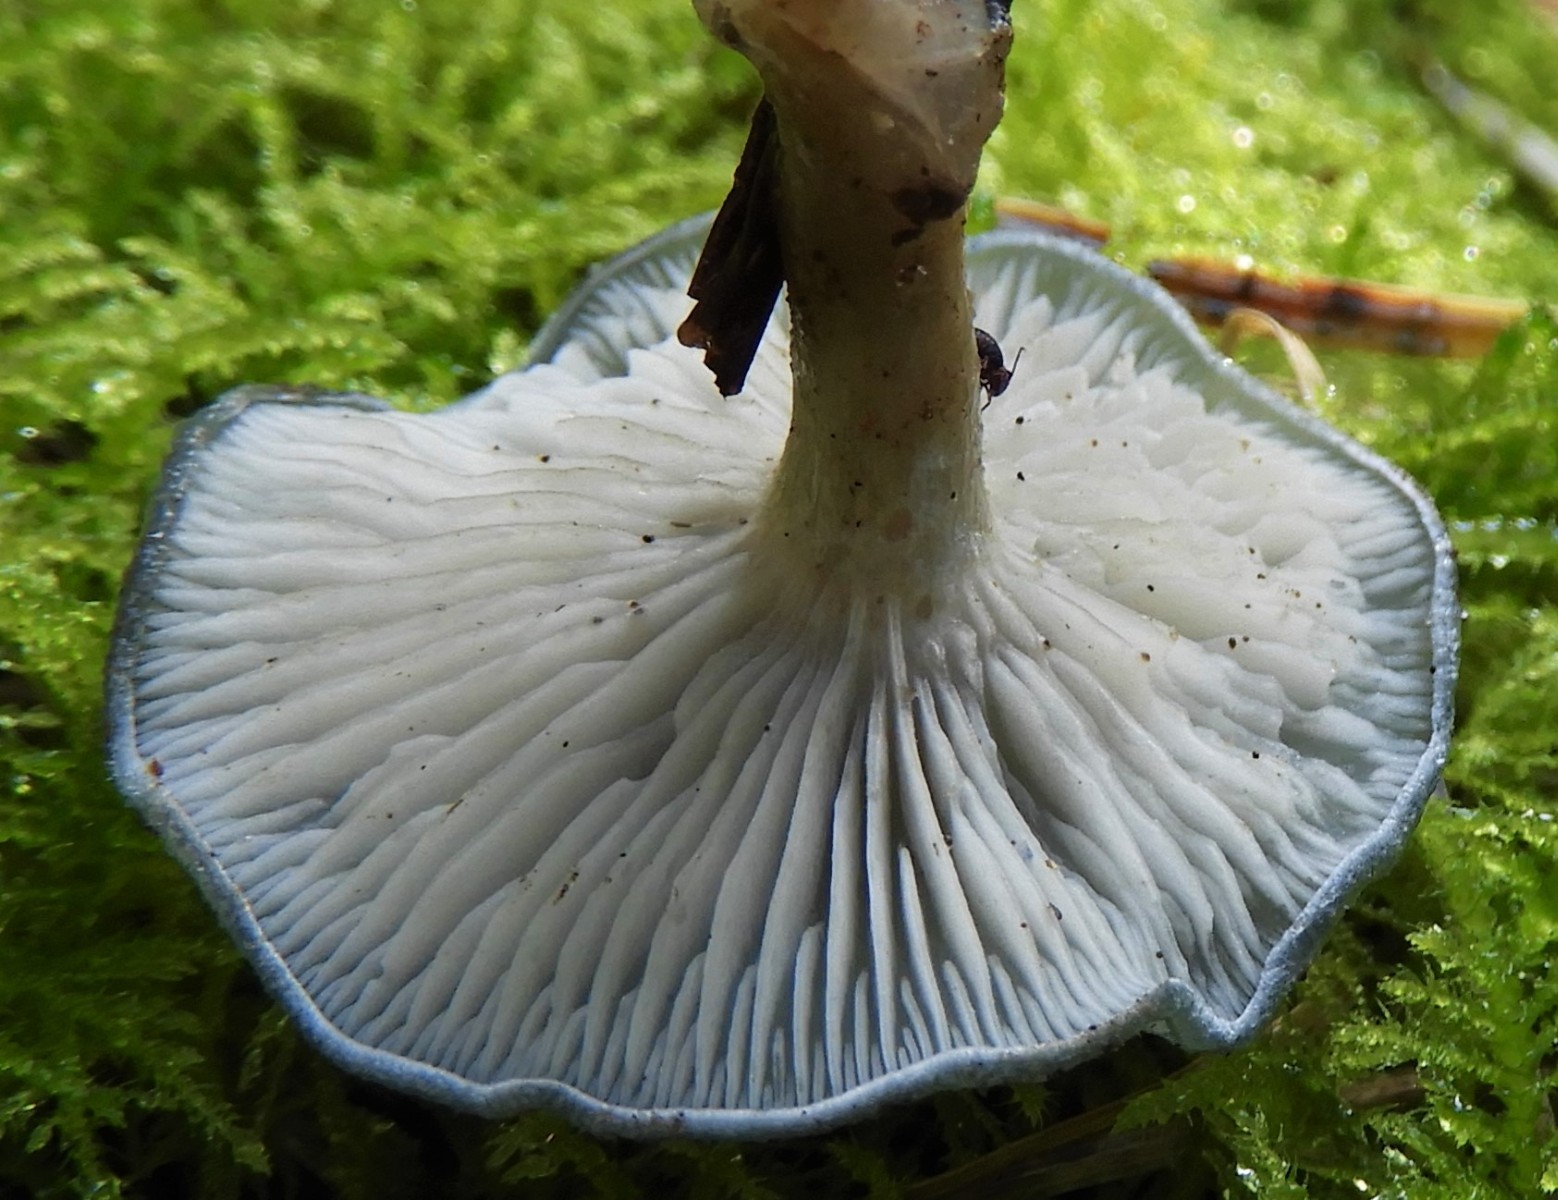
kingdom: Fungi
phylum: Basidiomycota
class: Agaricomycetes
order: Agaricales
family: Tricholomataceae
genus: Clitocybe
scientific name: Clitocybe odora
